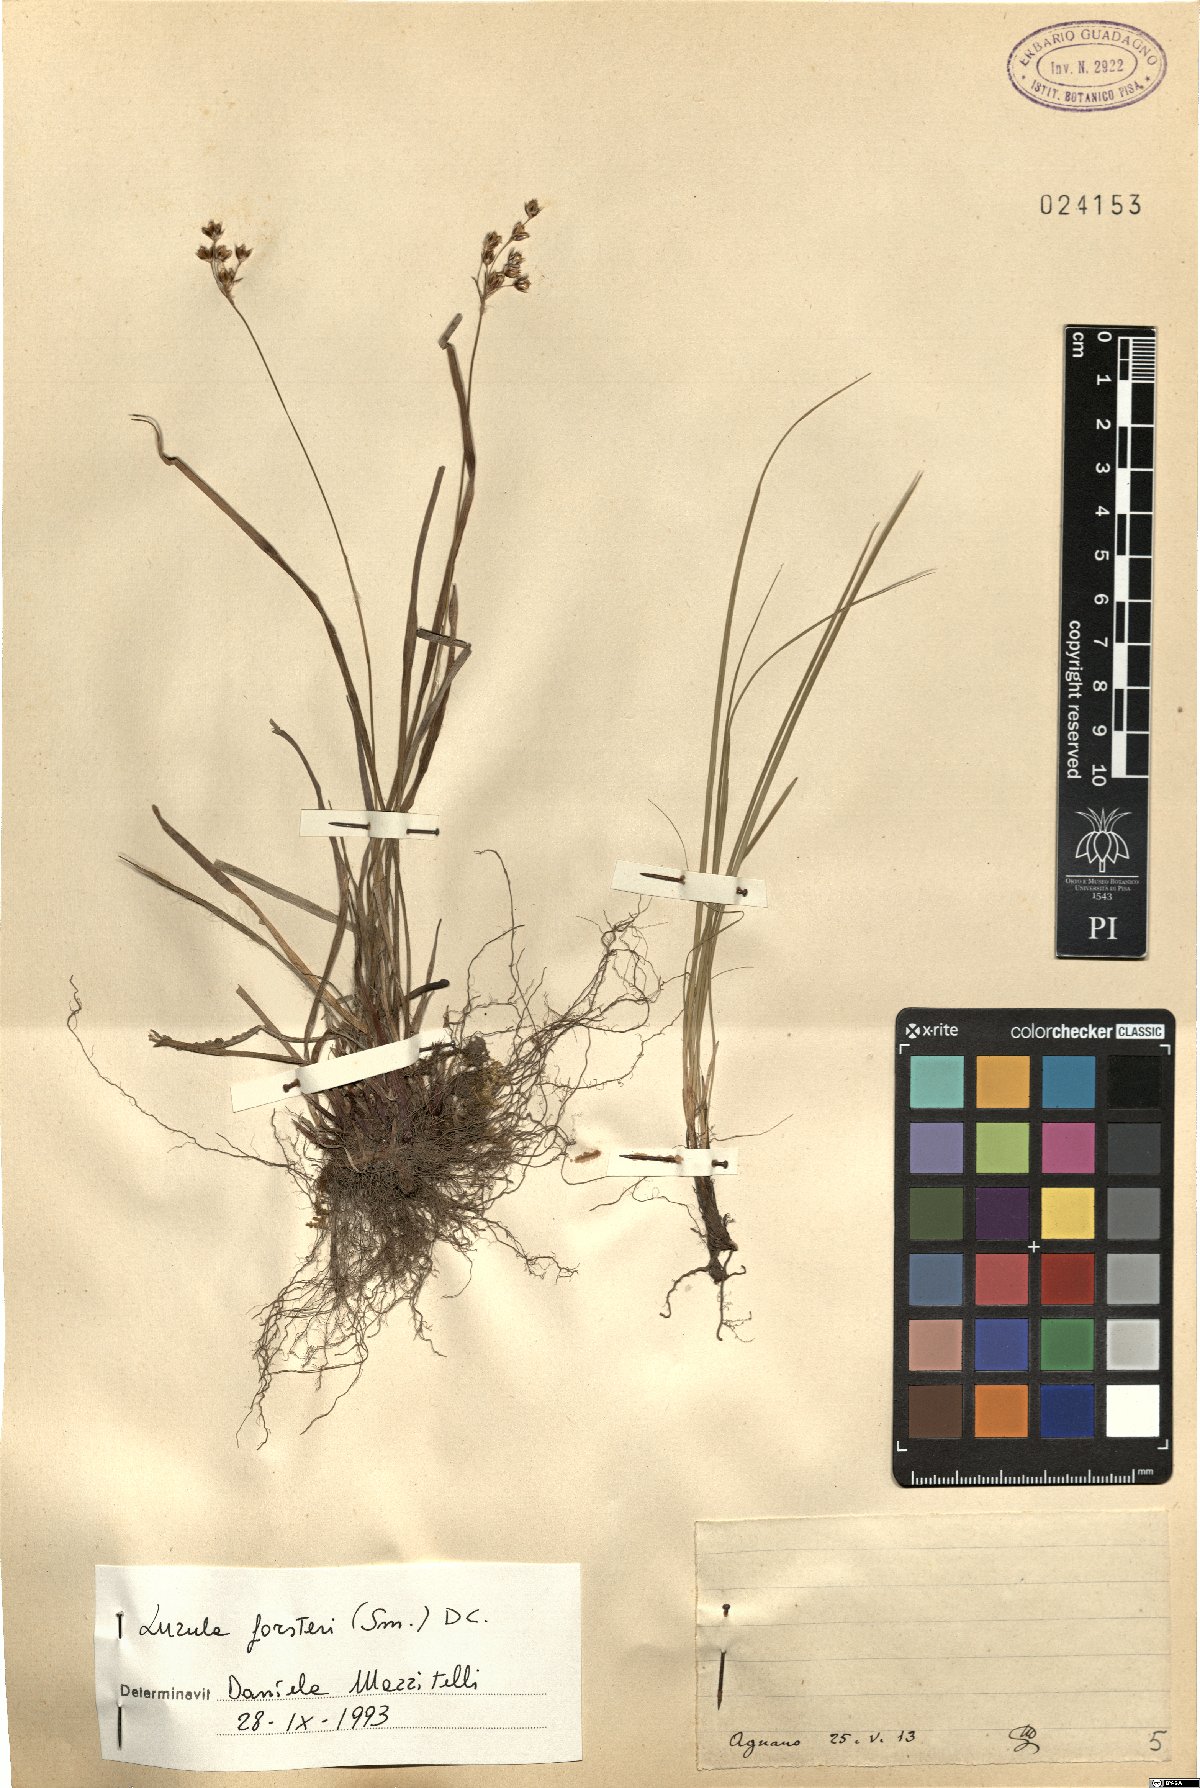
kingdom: Plantae
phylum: Tracheophyta
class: Liliopsida
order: Poales
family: Juncaceae
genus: Luzula
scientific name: Luzula forsteri
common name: Southern wood-rush
